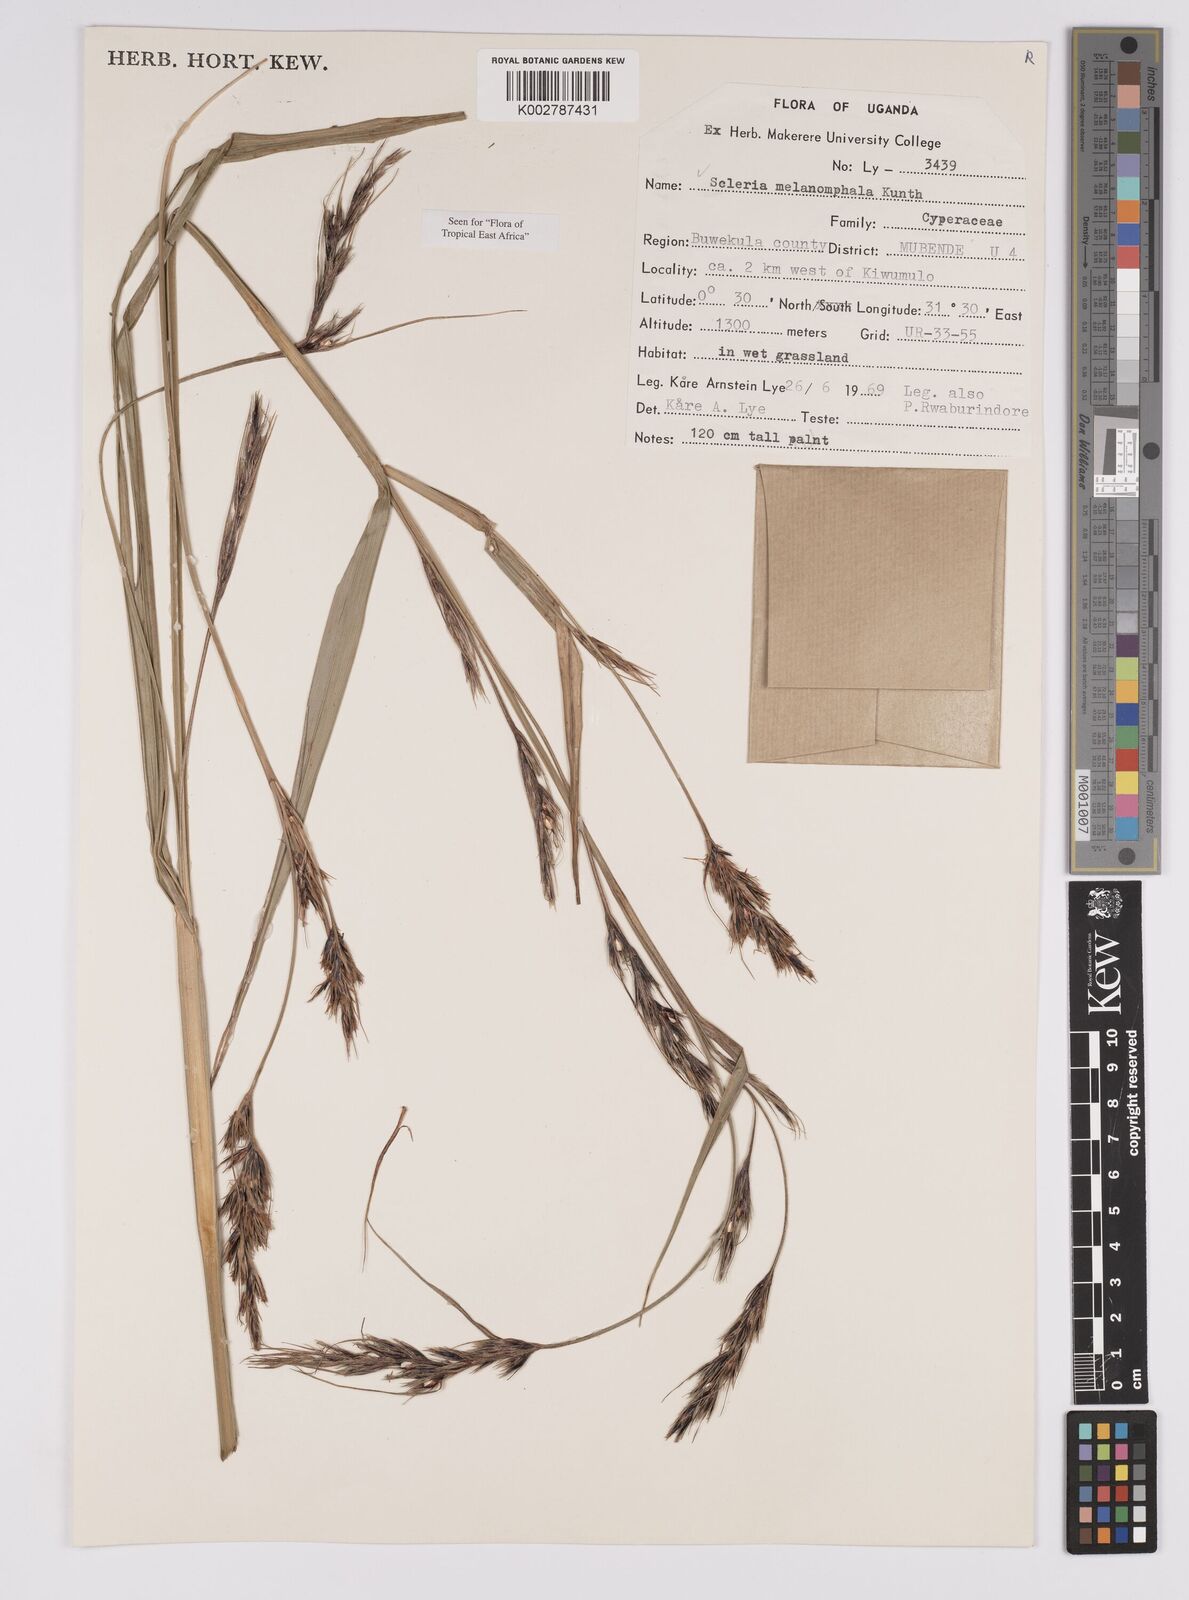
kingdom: Plantae
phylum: Tracheophyta
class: Liliopsida
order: Poales
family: Cyperaceae
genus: Scleria
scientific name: Scleria melanomphala
